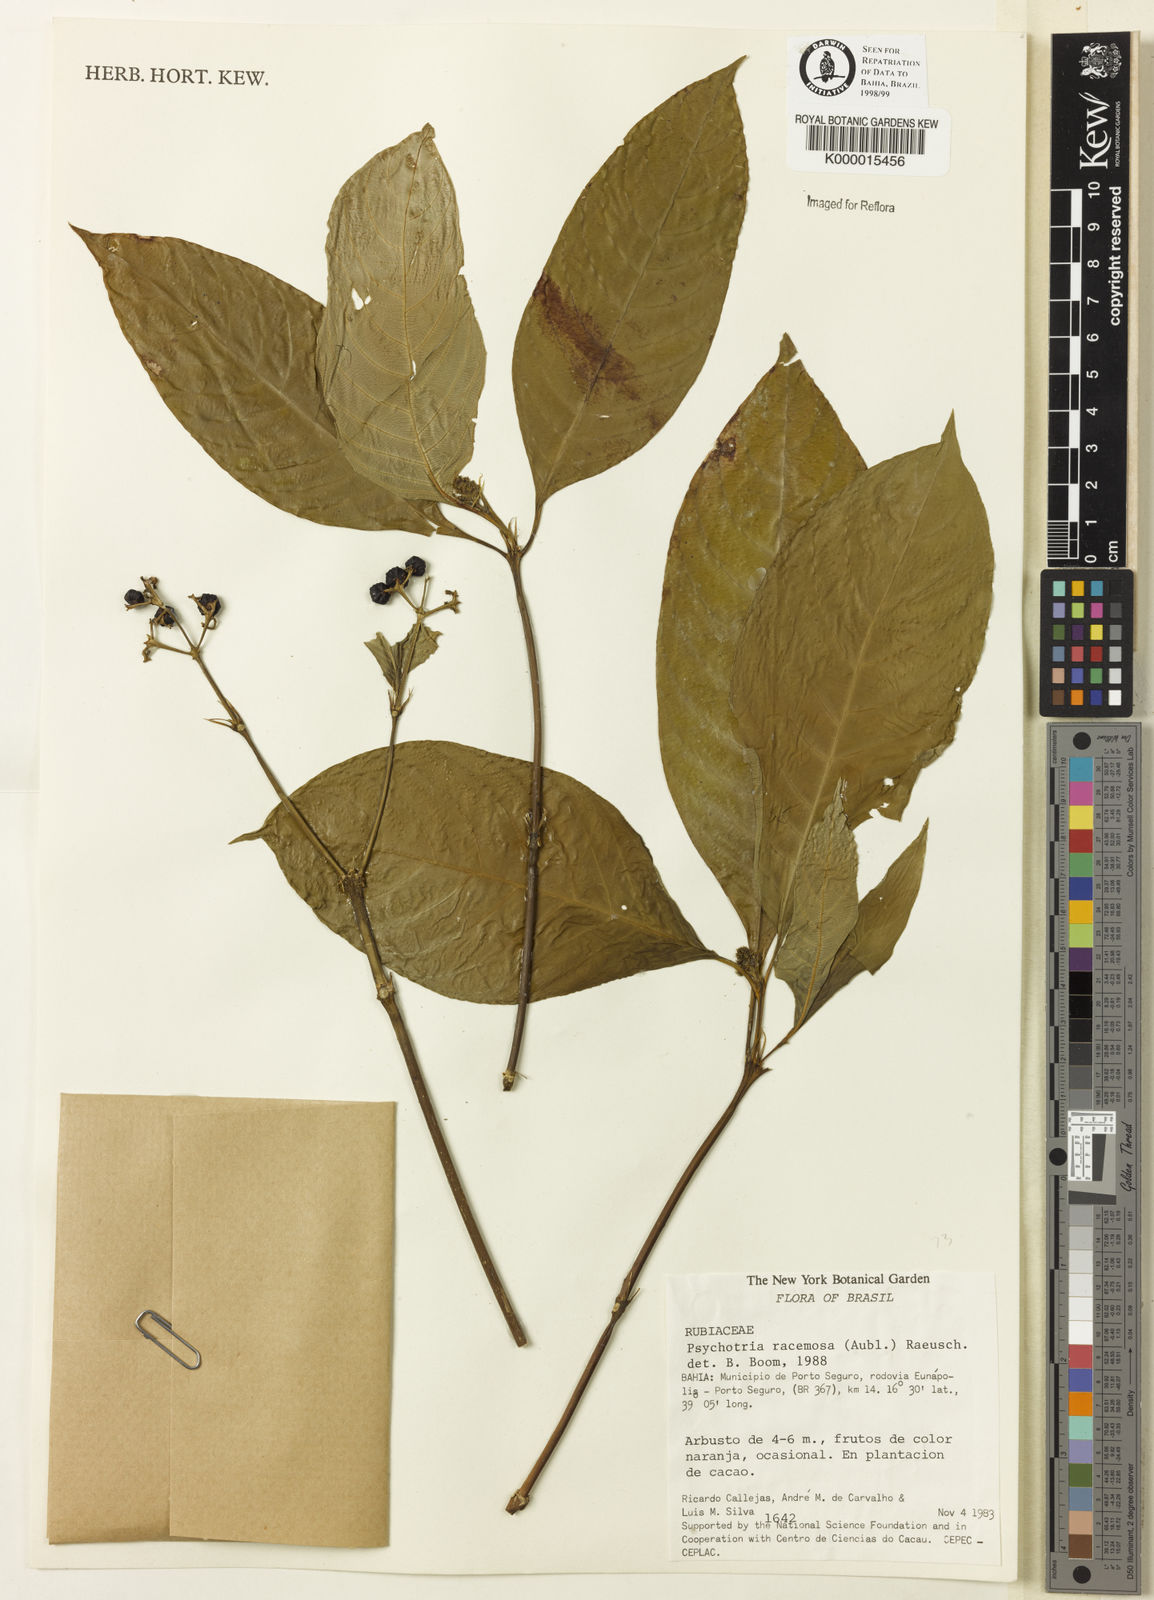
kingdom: Plantae
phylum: Tracheophyta
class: Magnoliopsida
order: Gentianales
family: Rubiaceae
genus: Psychotria
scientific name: Psychotria
